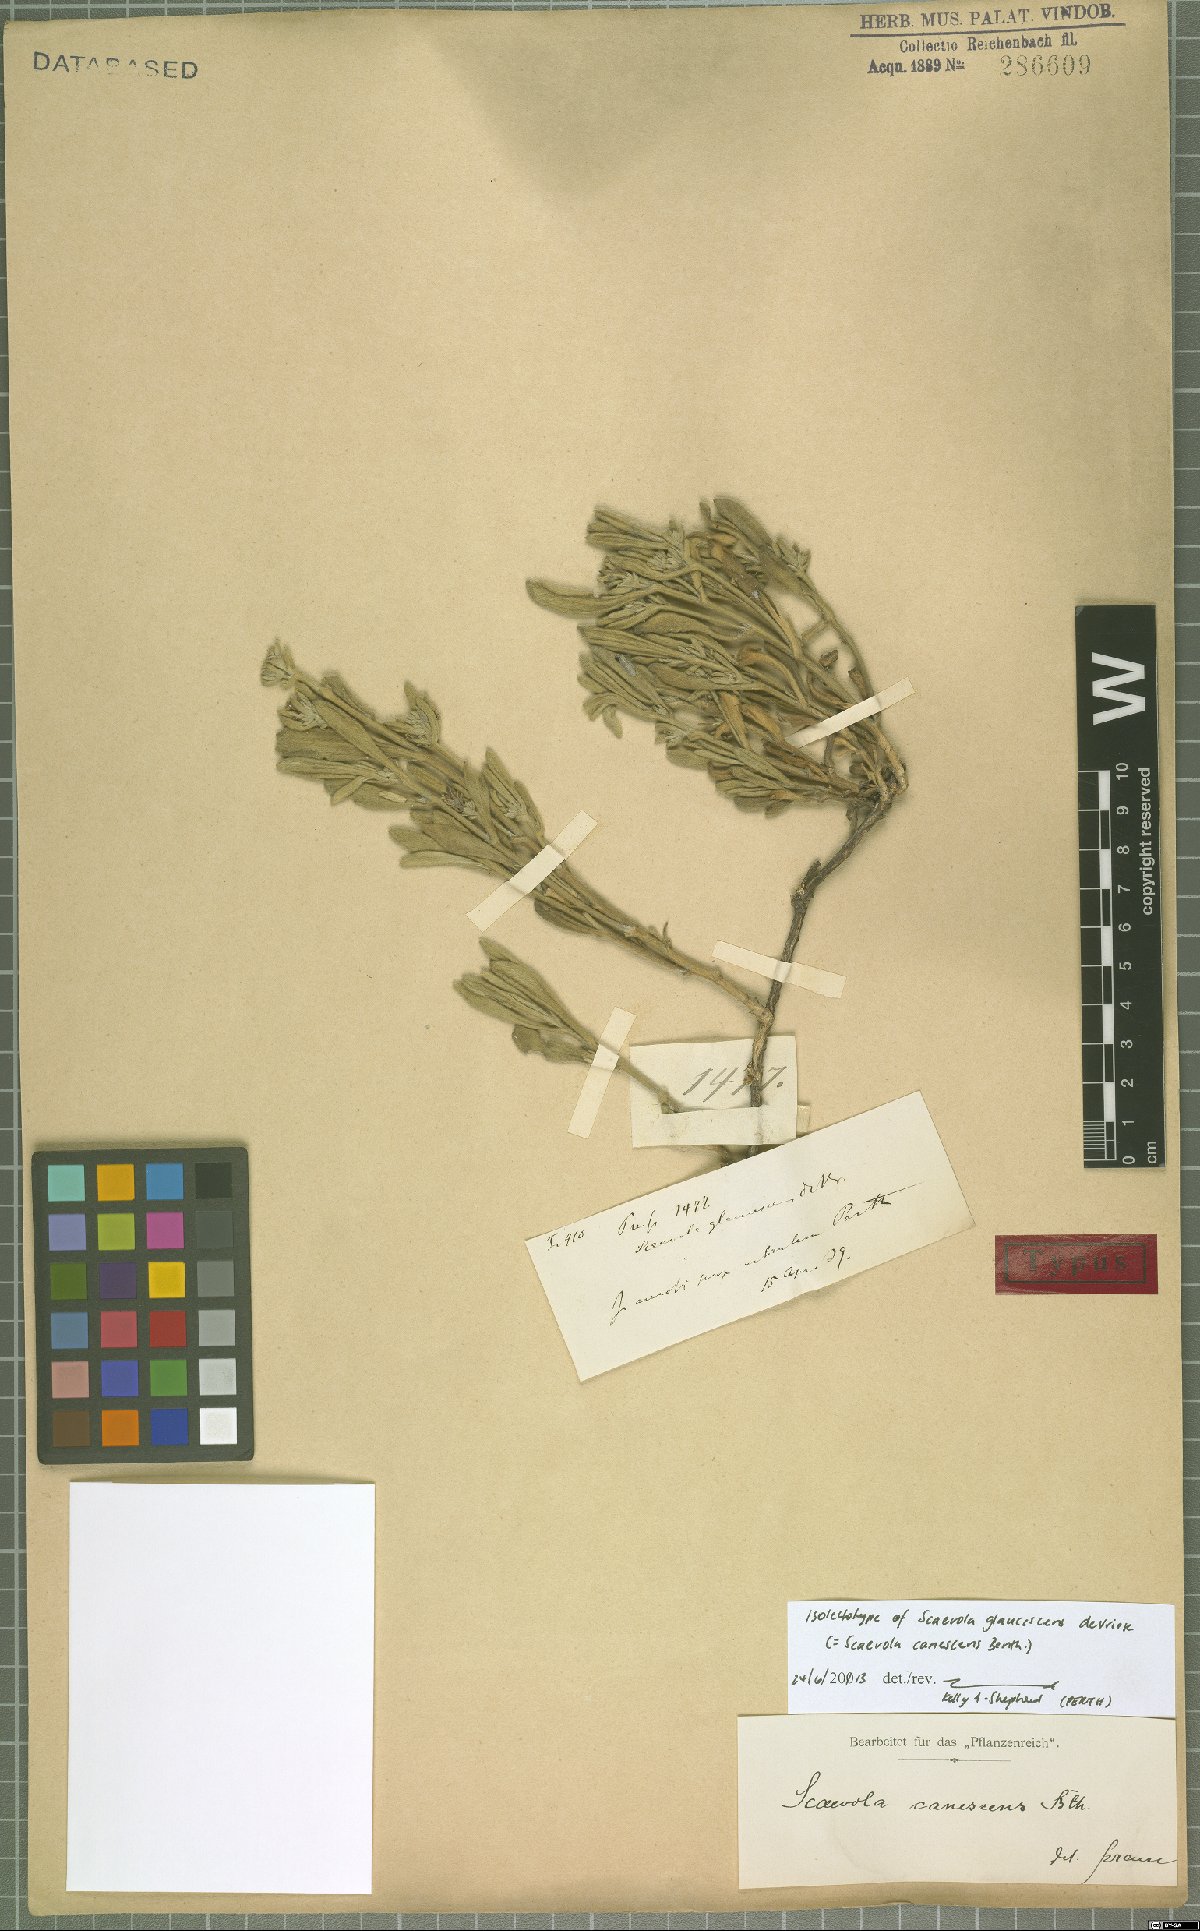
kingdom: Plantae
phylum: Tracheophyta
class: Magnoliopsida
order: Asterales
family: Goodeniaceae
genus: Scaevola
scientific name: Scaevola canescens
